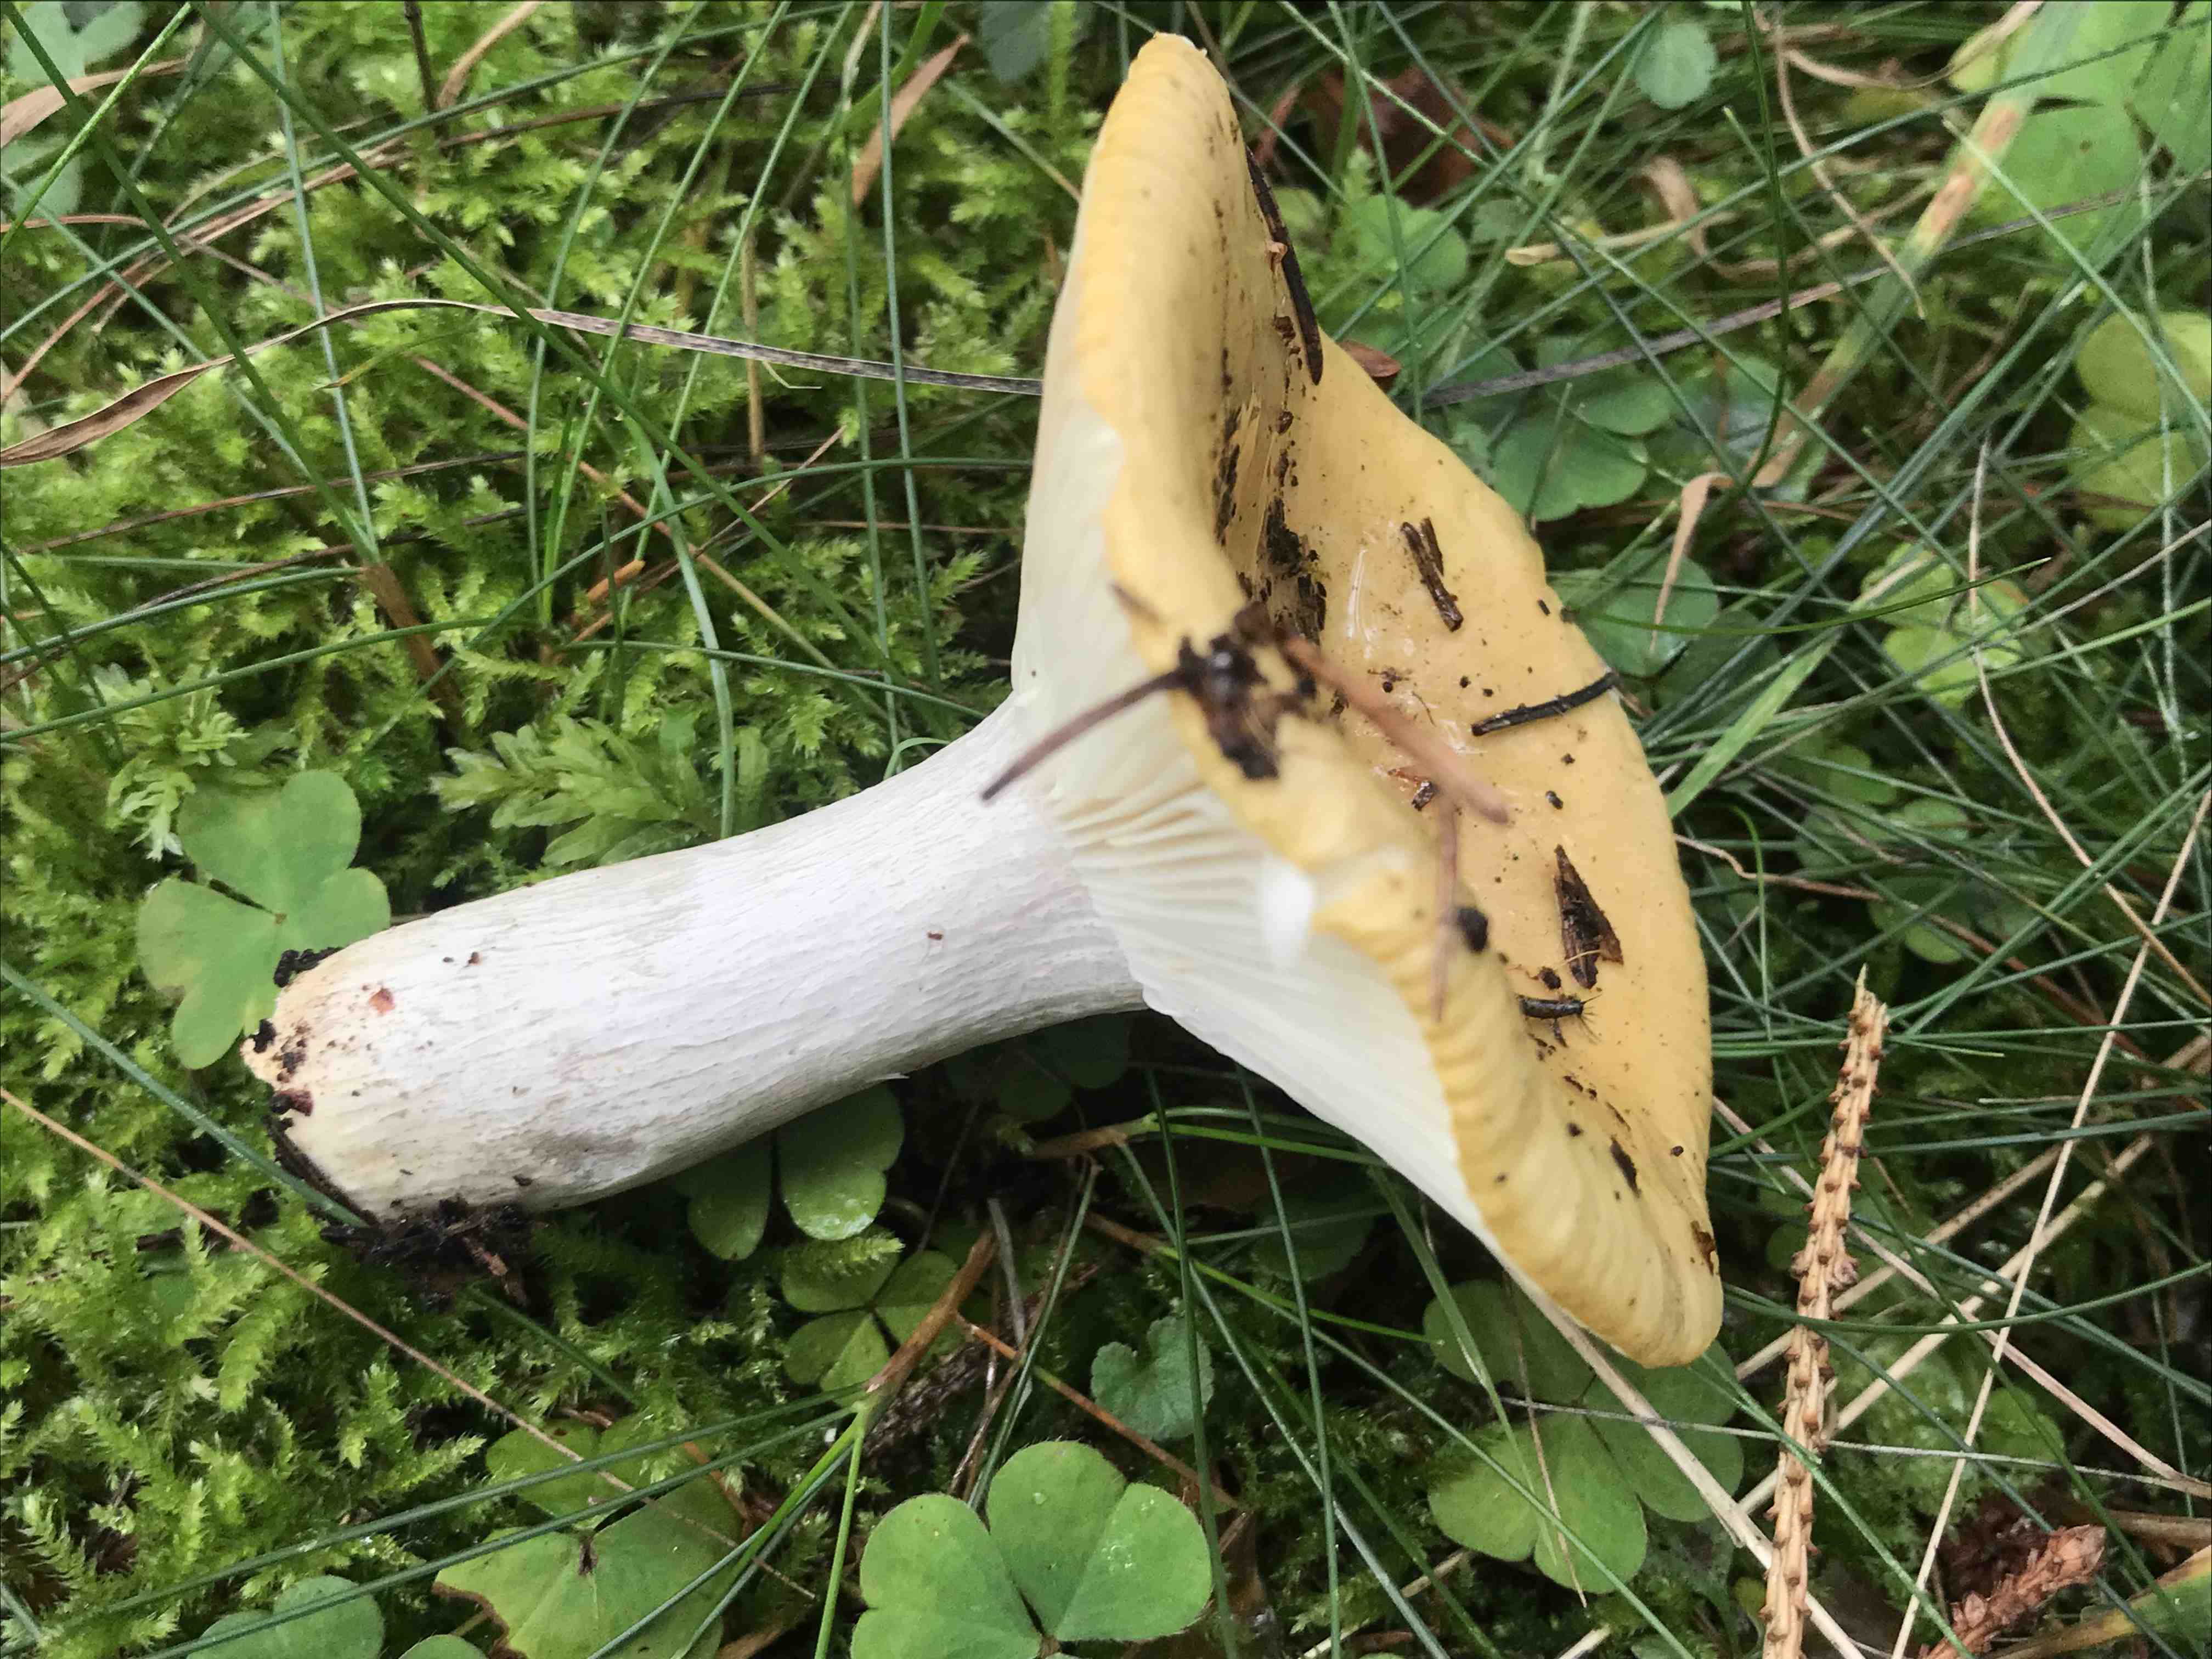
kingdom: Fungi
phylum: Basidiomycota
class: Agaricomycetes
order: Russulales
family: Russulaceae
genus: Russula
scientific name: Russula ochroleuca
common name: okkergul skørhat
